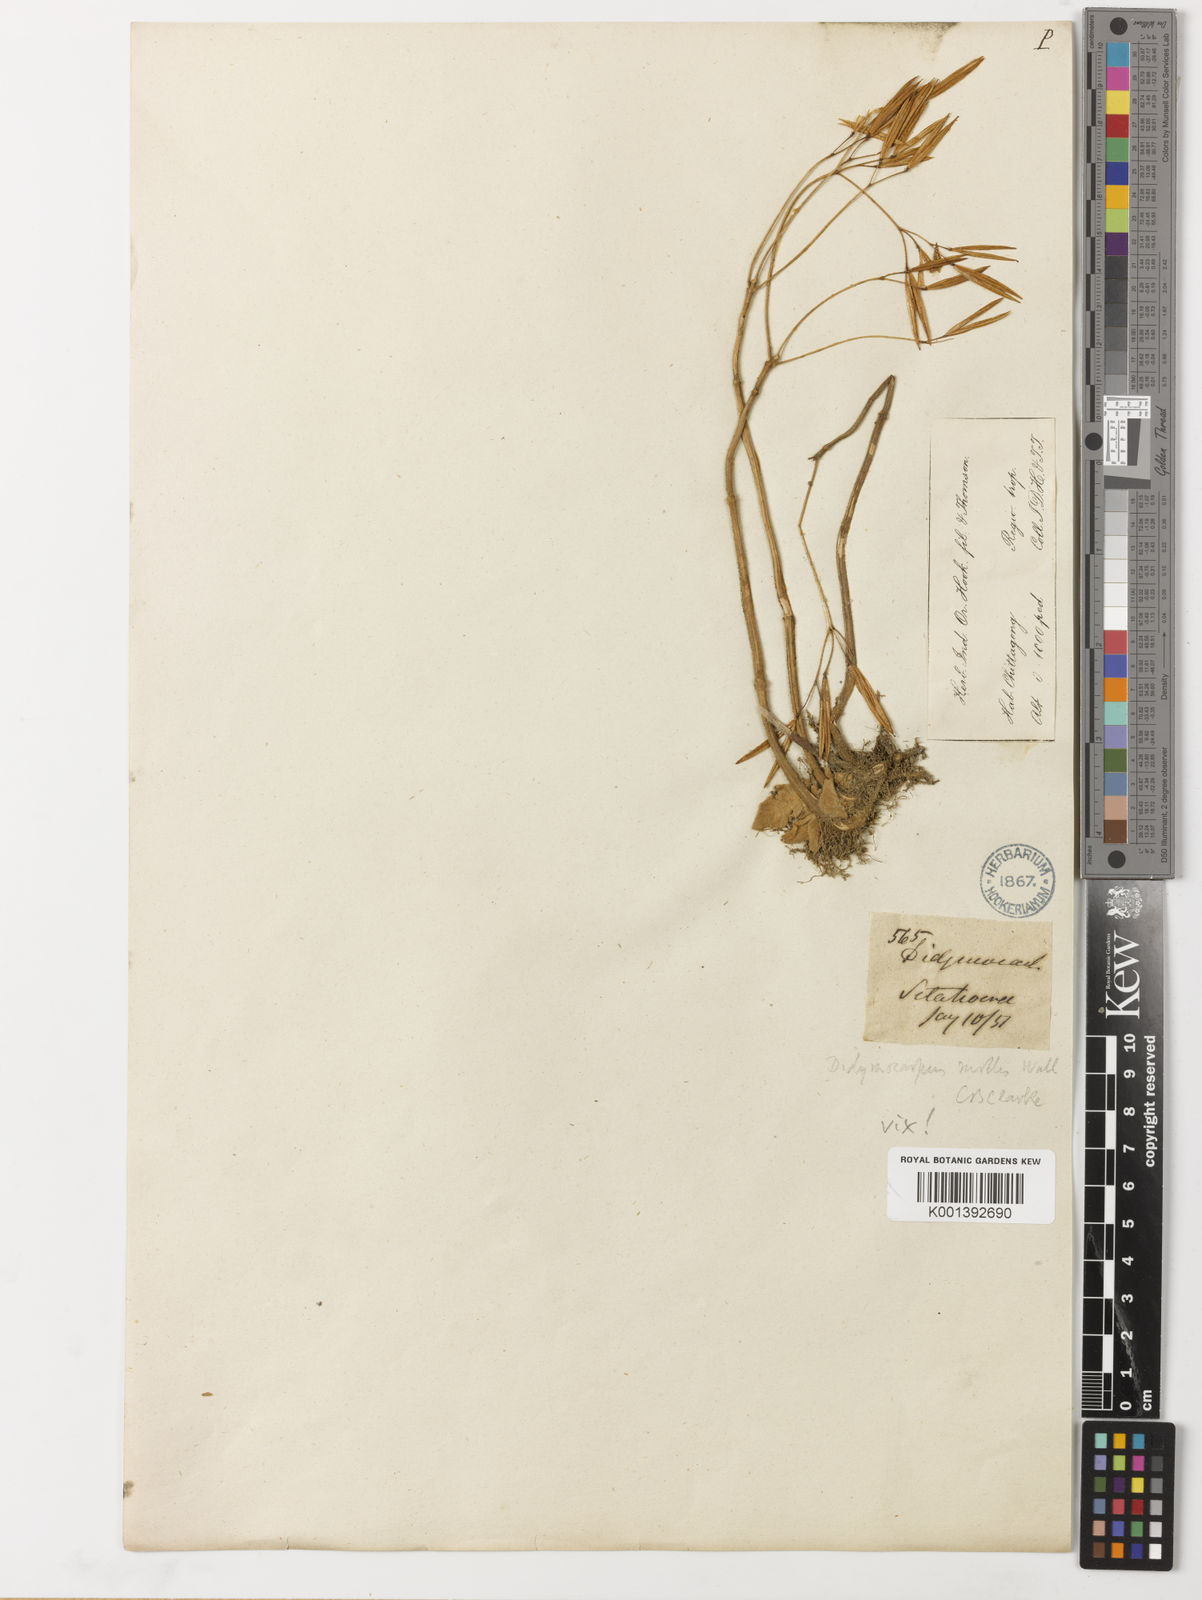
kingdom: Plantae
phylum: Tracheophyta
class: Magnoliopsida
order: Lamiales
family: Gesneriaceae
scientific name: Gesneriaceae
